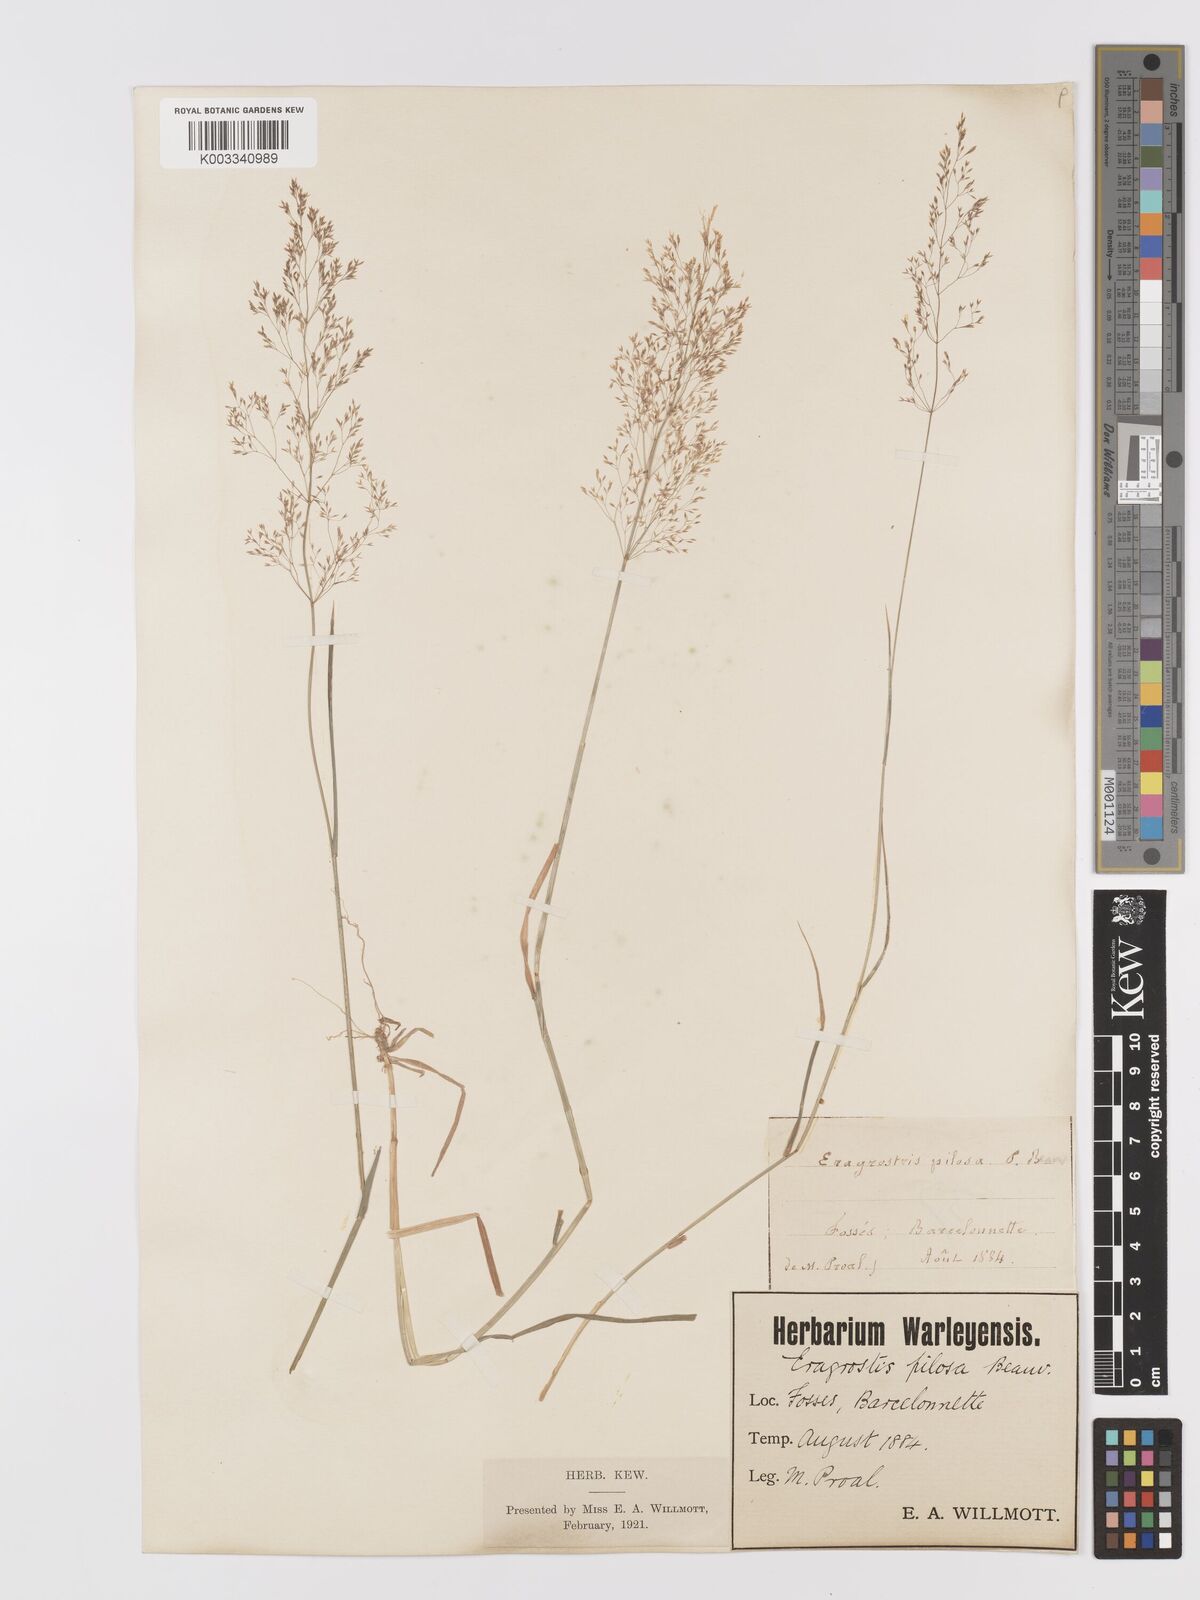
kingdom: Plantae
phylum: Tracheophyta
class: Liliopsida
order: Poales
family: Poaceae
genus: Agrostis
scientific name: Agrostis capillaris
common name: Colonial bentgrass
